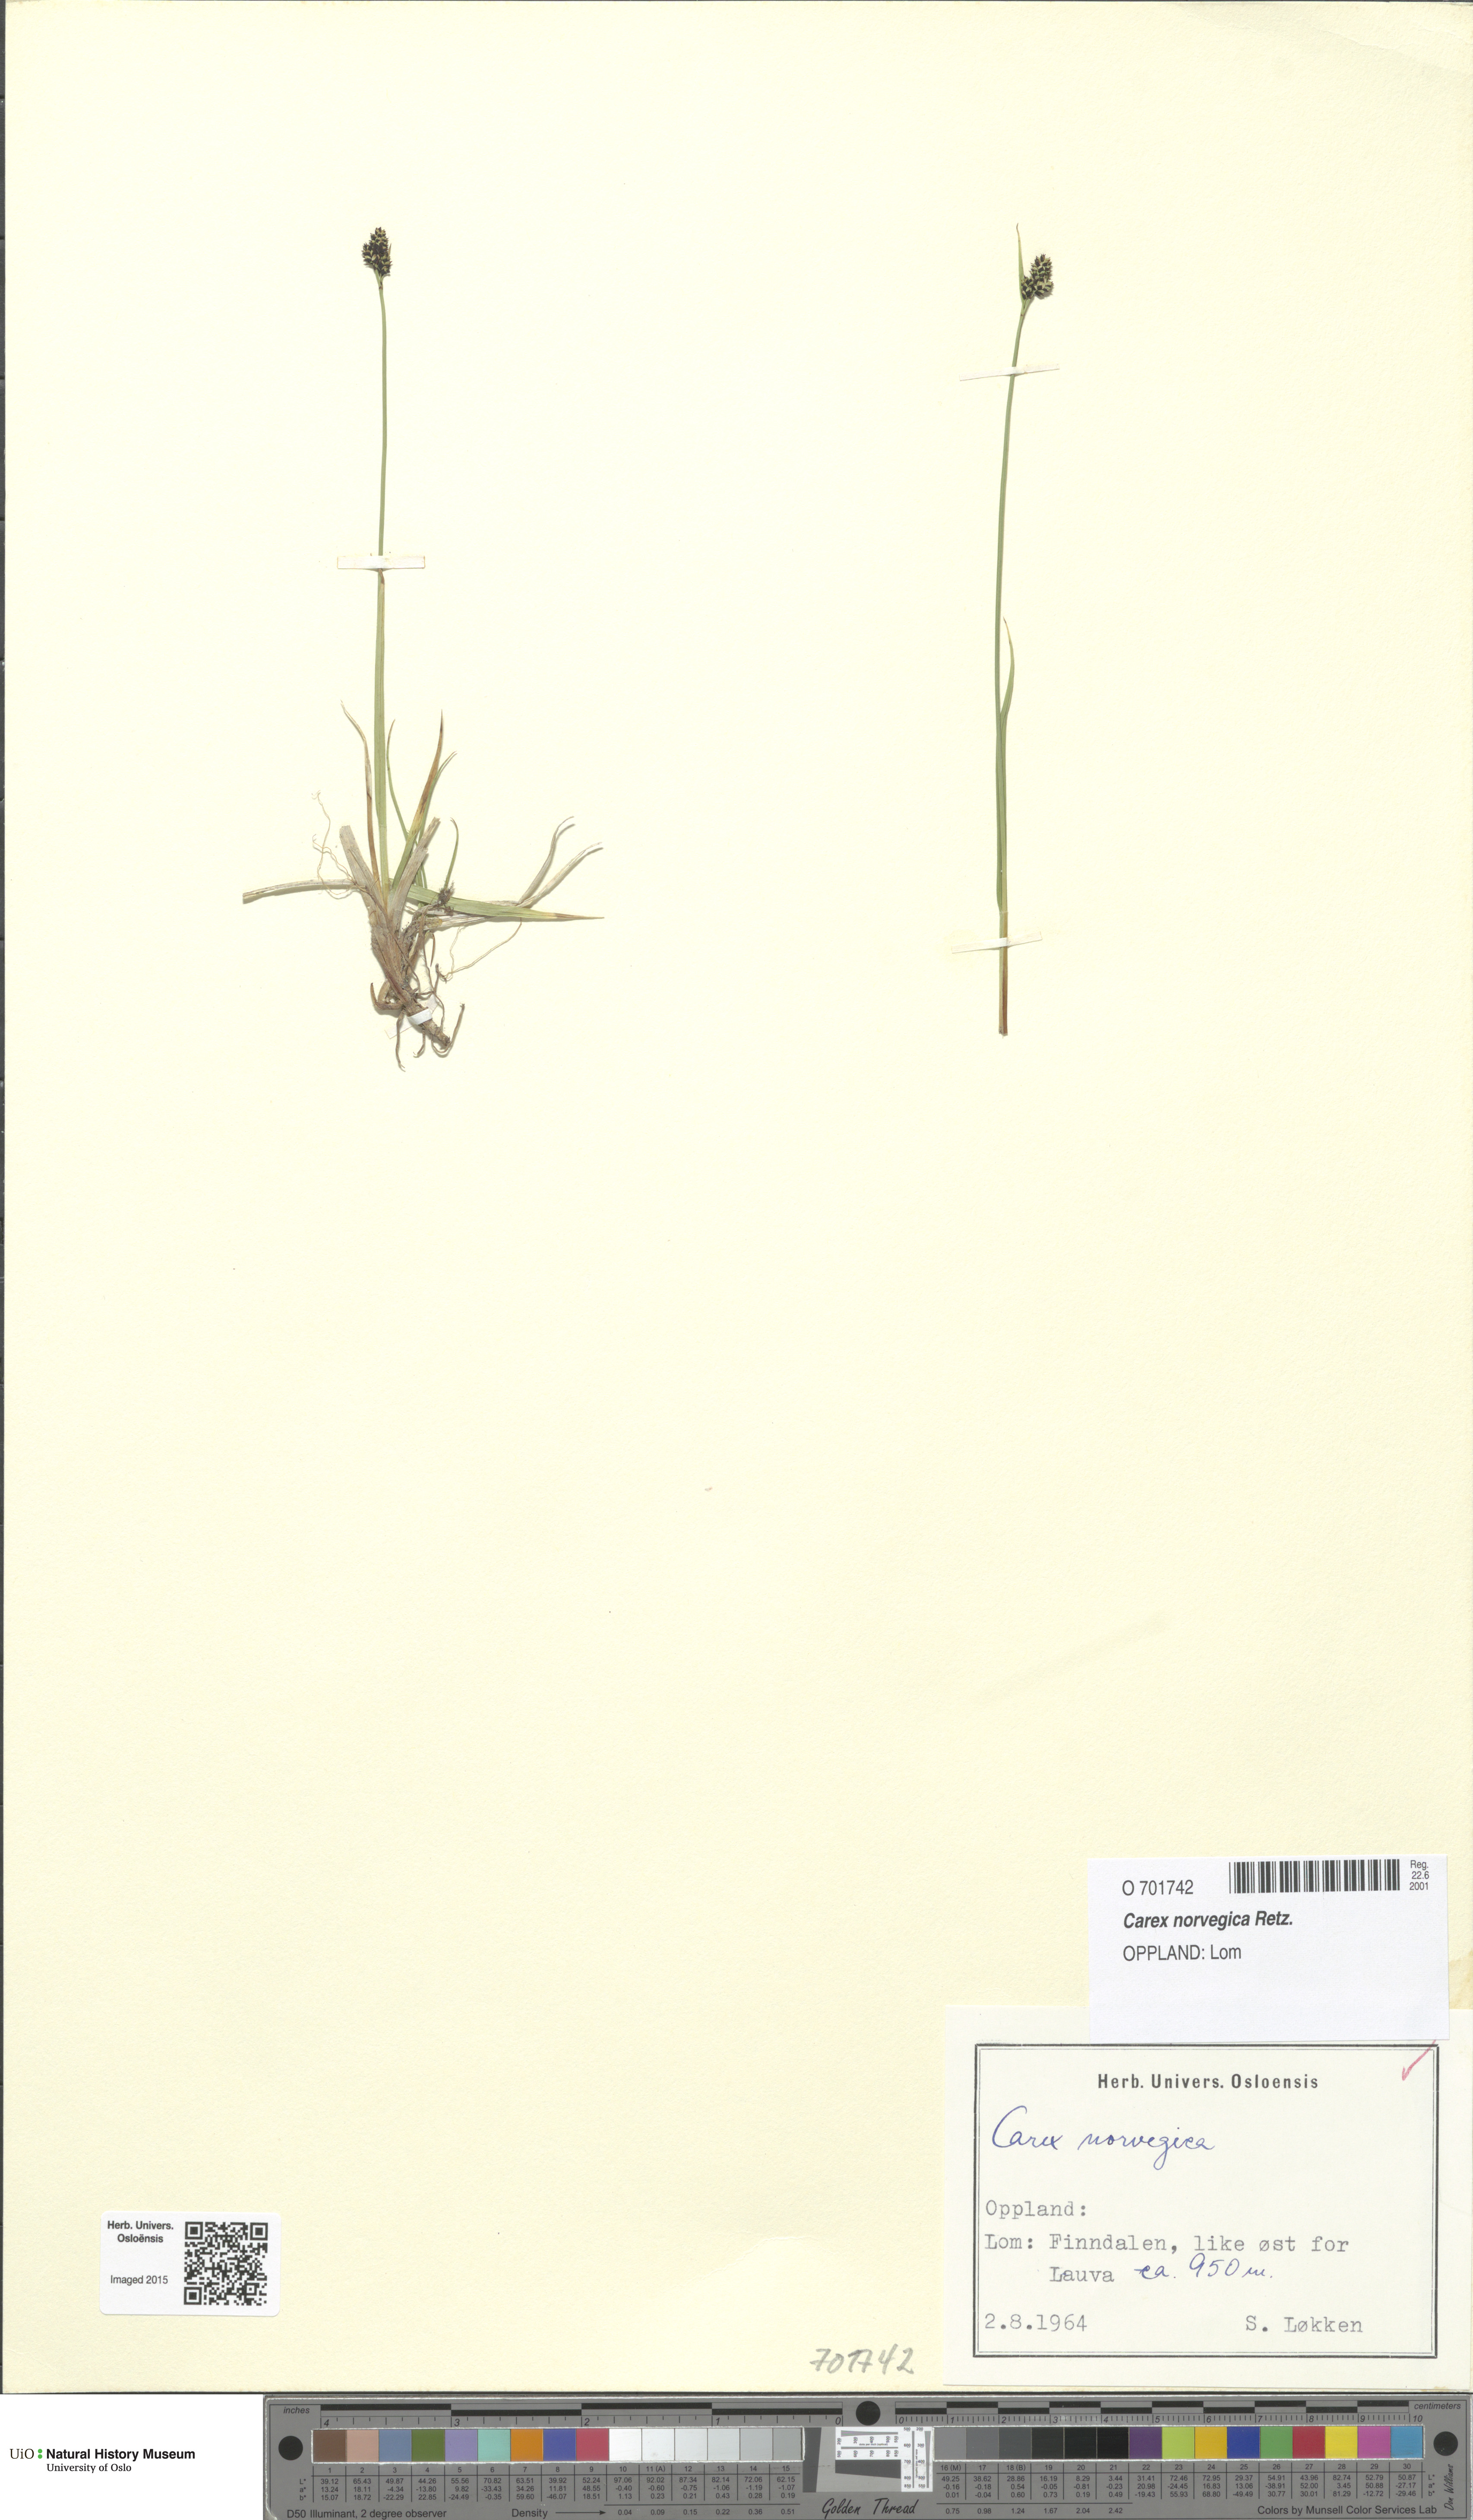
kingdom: Plantae
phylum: Tracheophyta
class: Liliopsida
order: Poales
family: Cyperaceae
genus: Carex
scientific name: Carex norvegica
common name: Close-headed alpine-sedge
